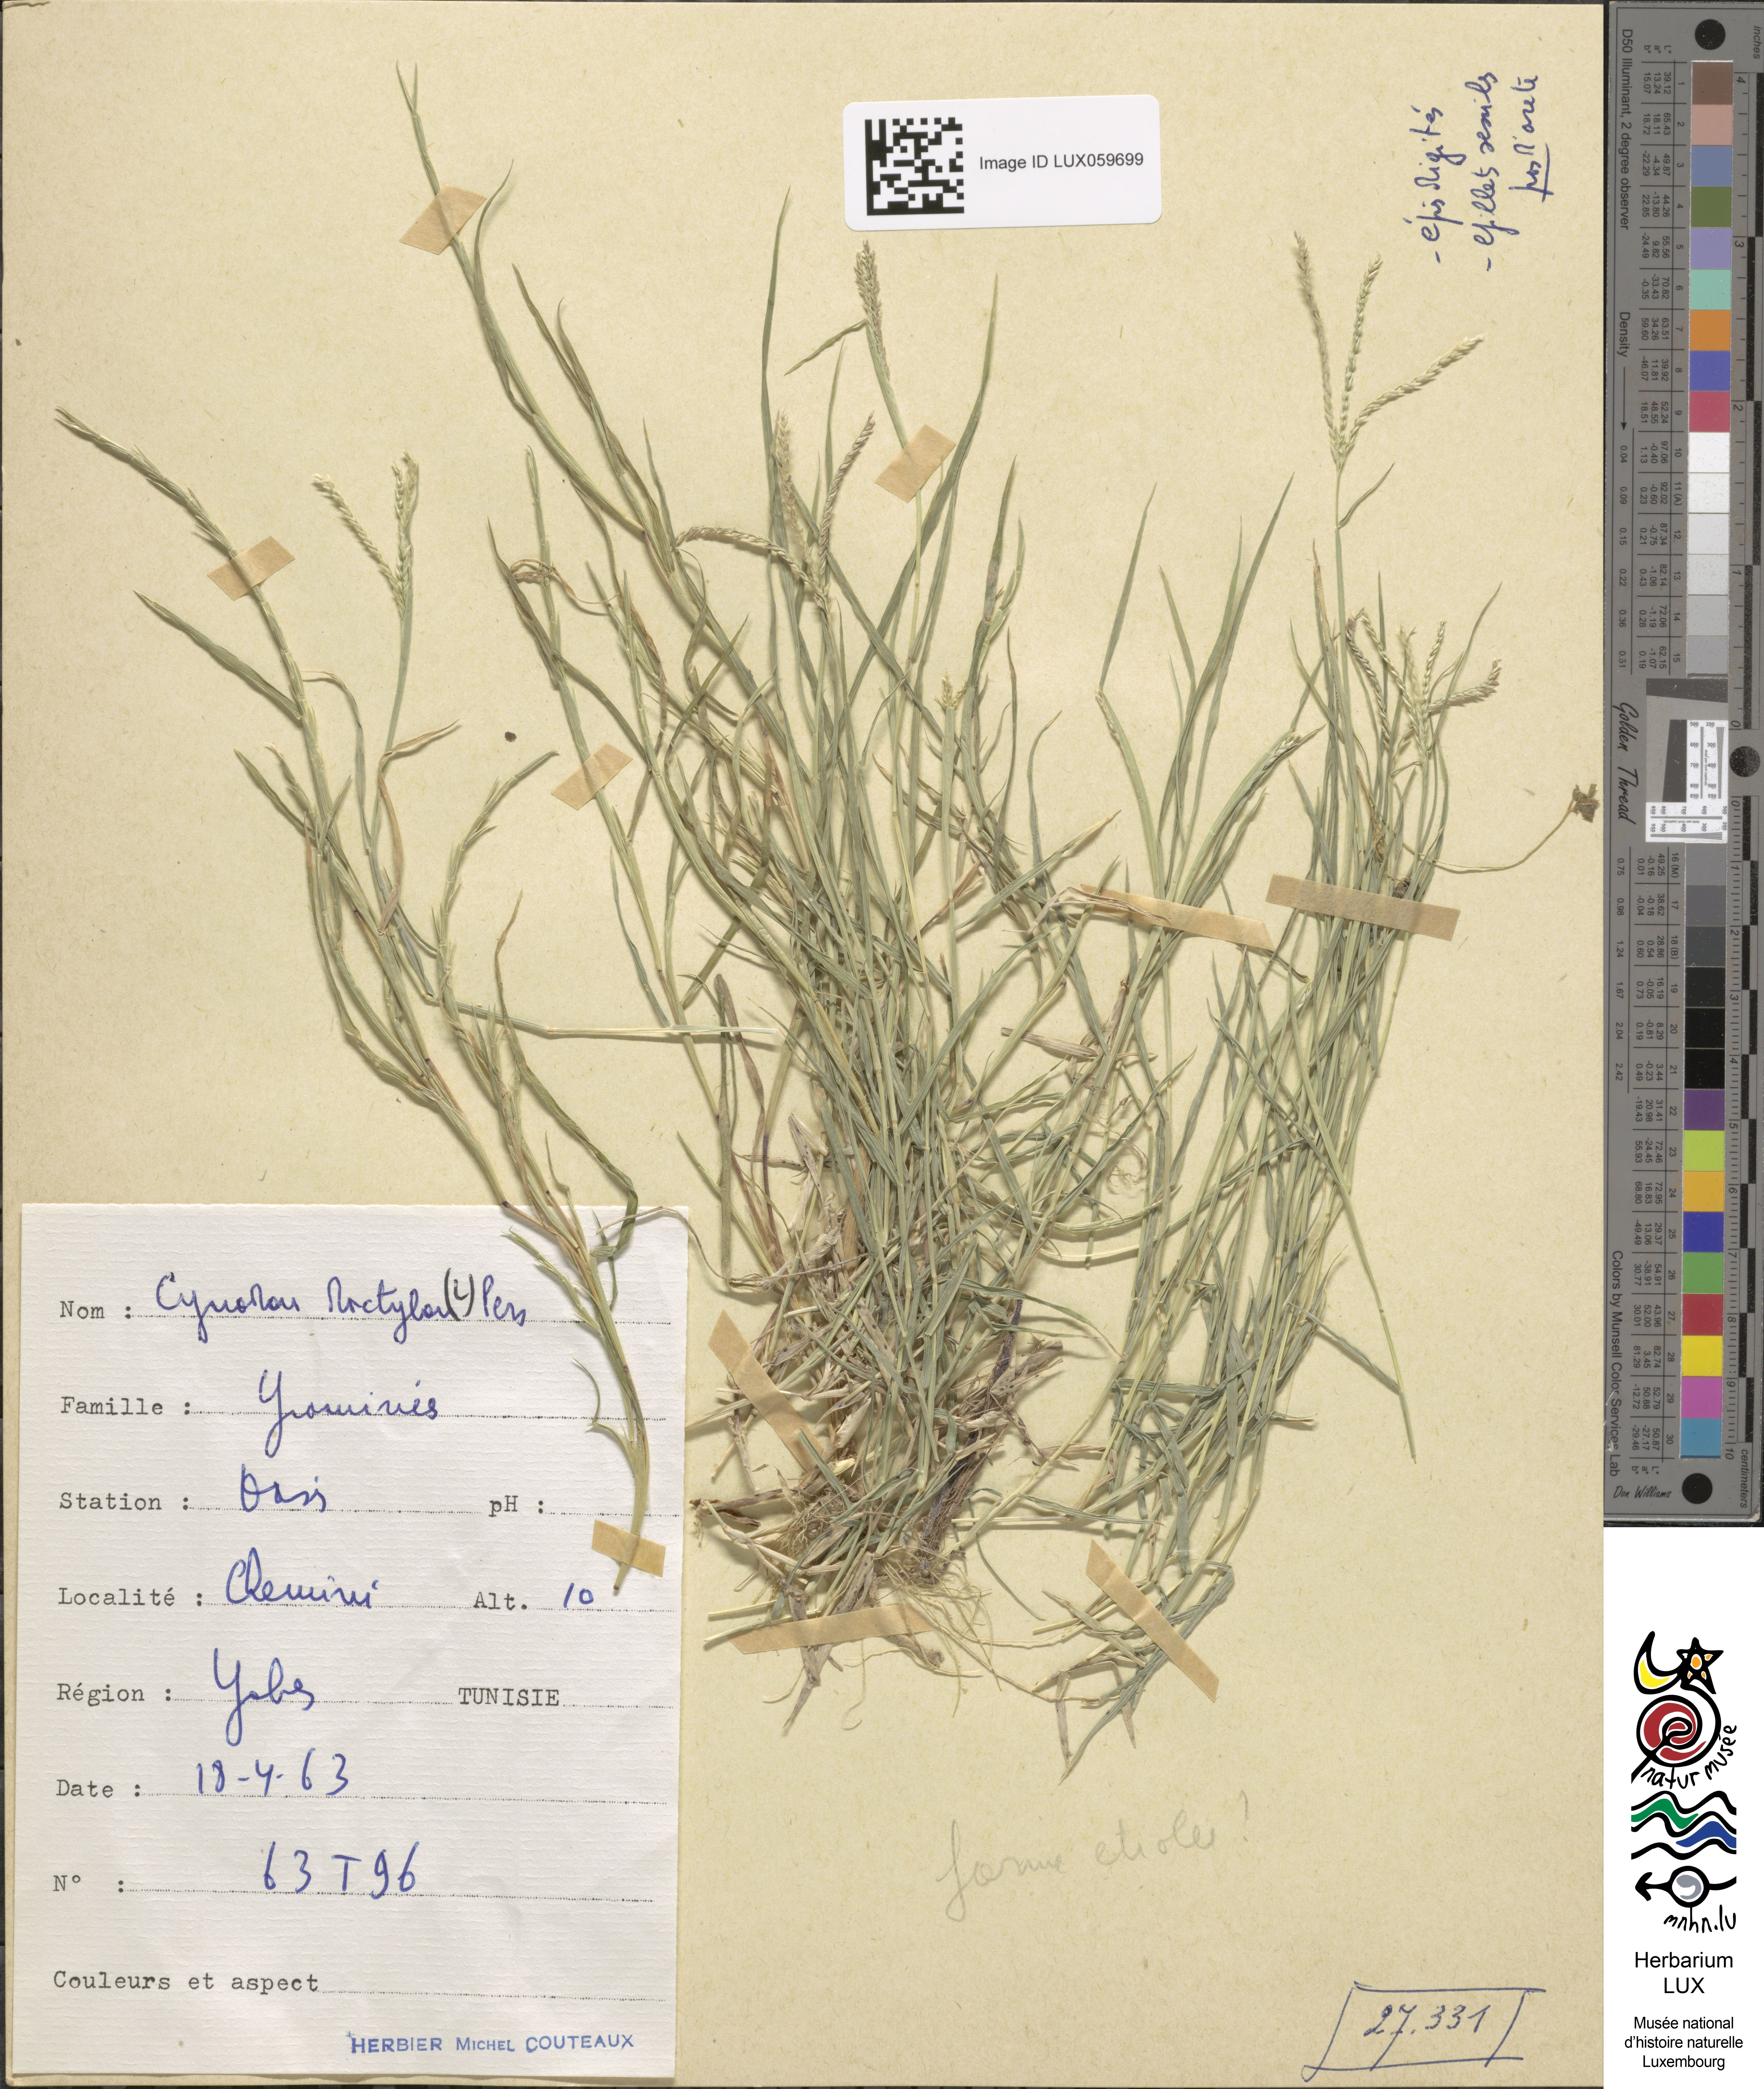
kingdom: Plantae
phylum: Tracheophyta
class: Liliopsida
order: Poales
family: Poaceae
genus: Cynodon
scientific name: Cynodon dactylon
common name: Bermuda grass
